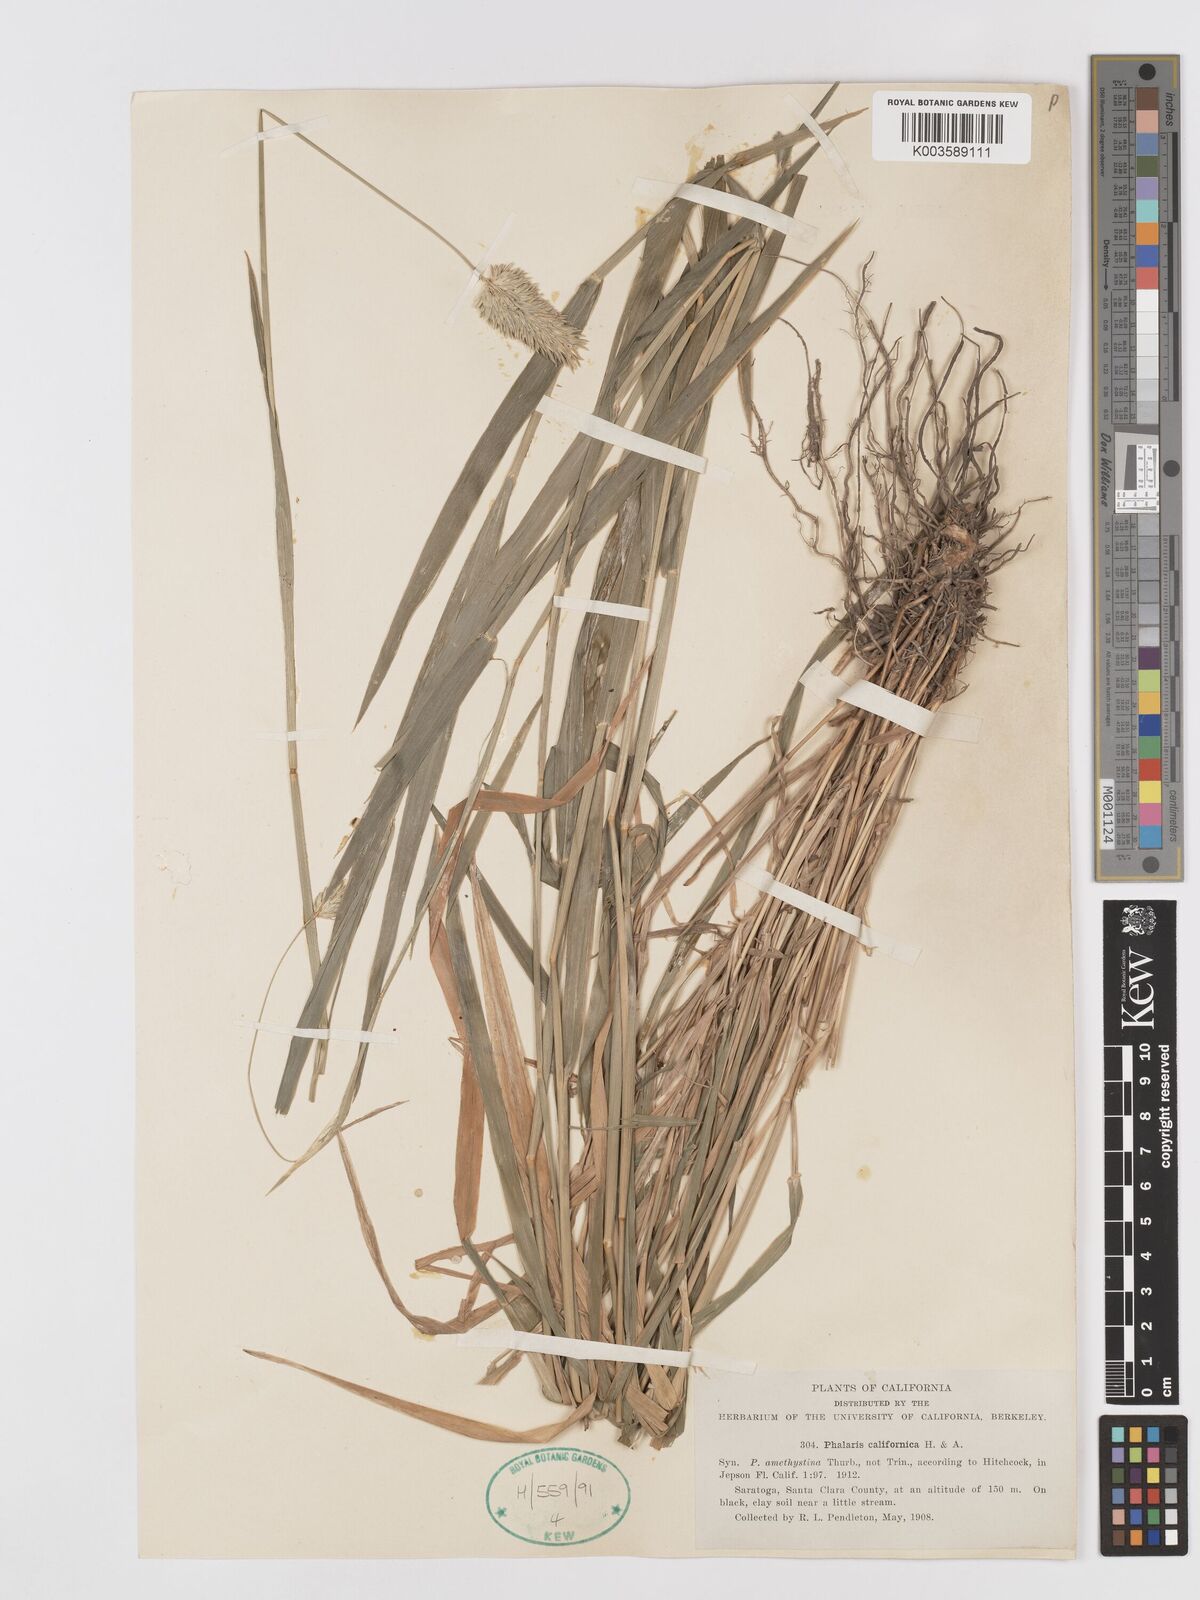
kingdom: Plantae
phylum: Tracheophyta
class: Liliopsida
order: Poales
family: Poaceae
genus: Phalaris
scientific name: Phalaris californica
